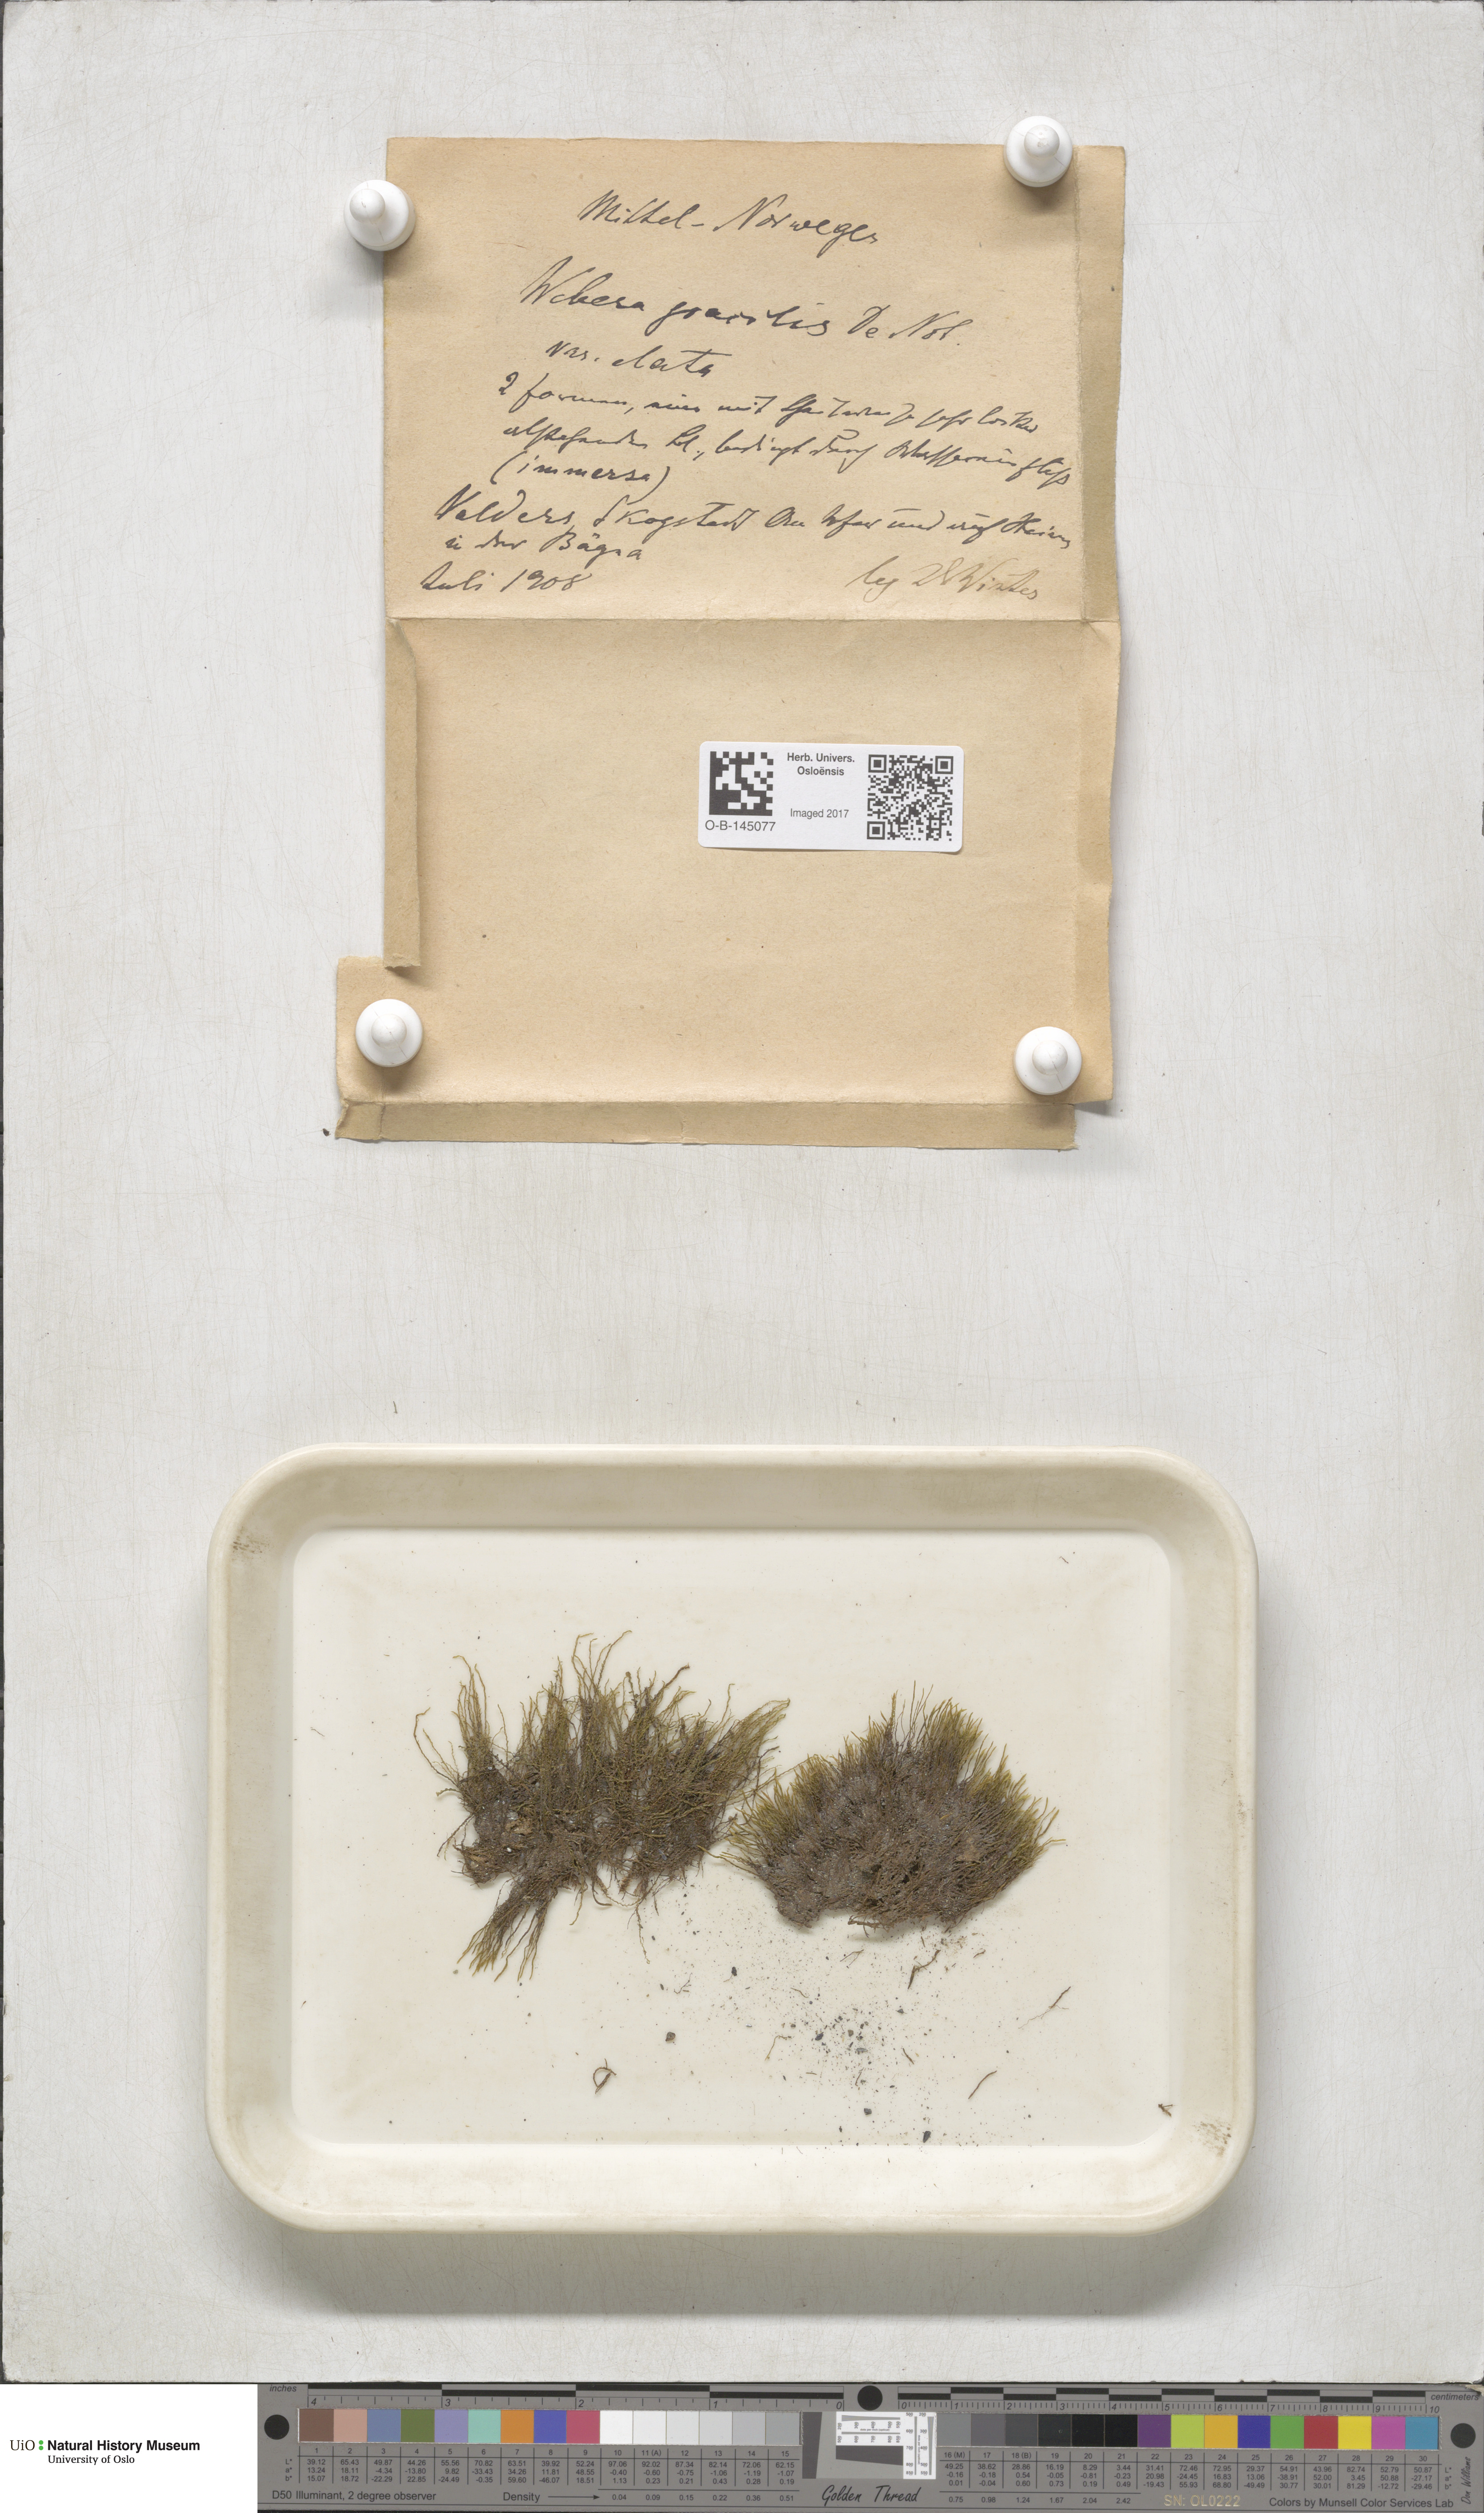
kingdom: Plantae
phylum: Bryophyta
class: Bryopsida
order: Bryales
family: Mniaceae
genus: Pohlia
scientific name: Pohlia filum
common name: Slender nodding moss
